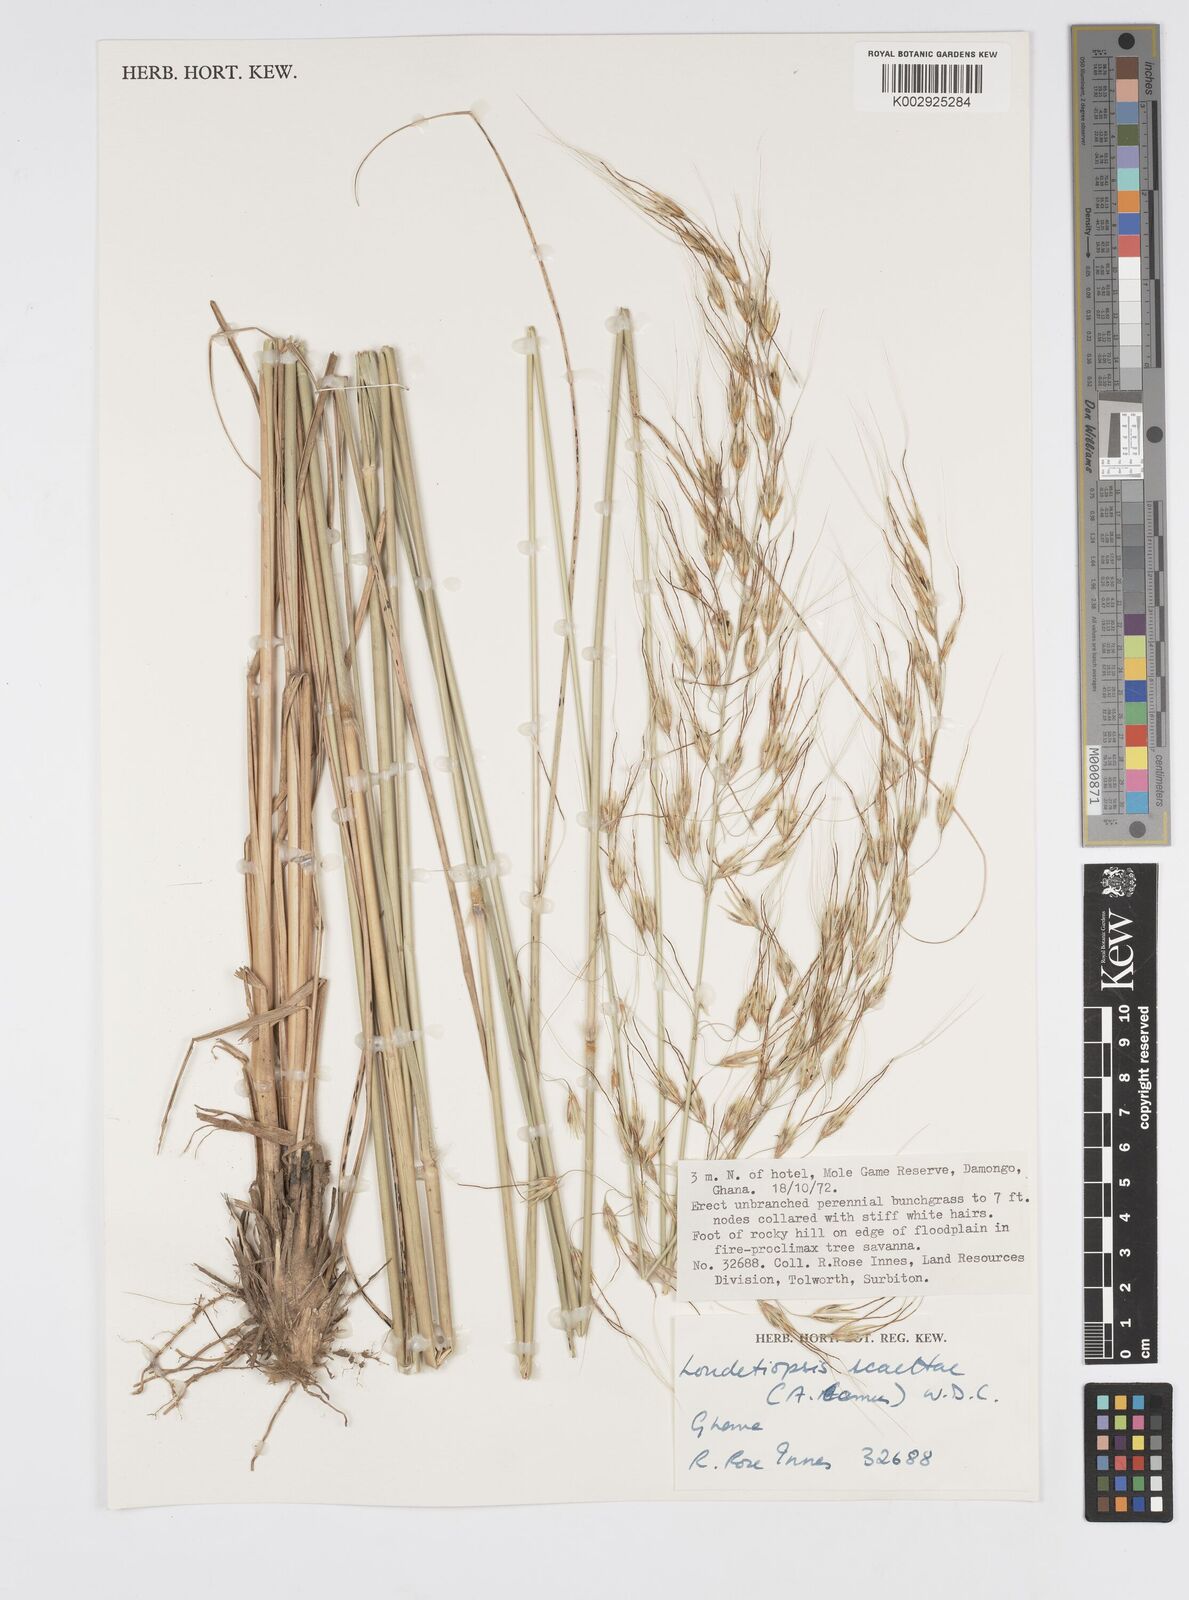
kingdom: Plantae
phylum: Tracheophyta
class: Liliopsida
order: Poales
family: Poaceae
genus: Loudetiopsis
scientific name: Loudetiopsis scaettae
